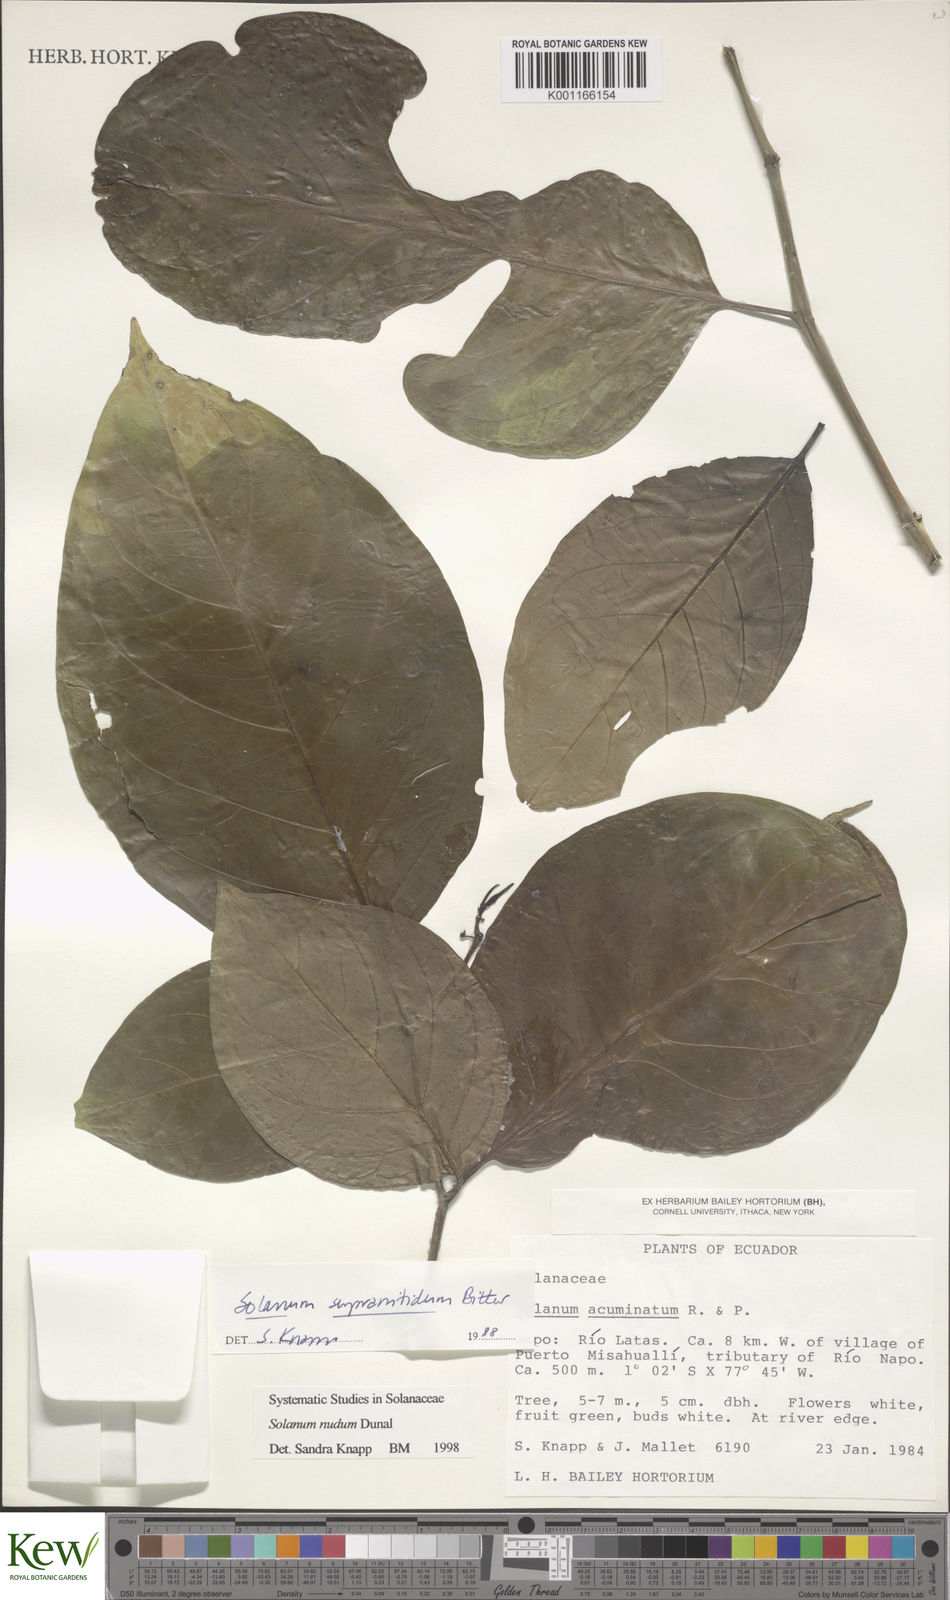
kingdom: Plantae
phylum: Tracheophyta
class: Magnoliopsida
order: Solanales
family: Solanaceae
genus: Solanum
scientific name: Solanum nudum
